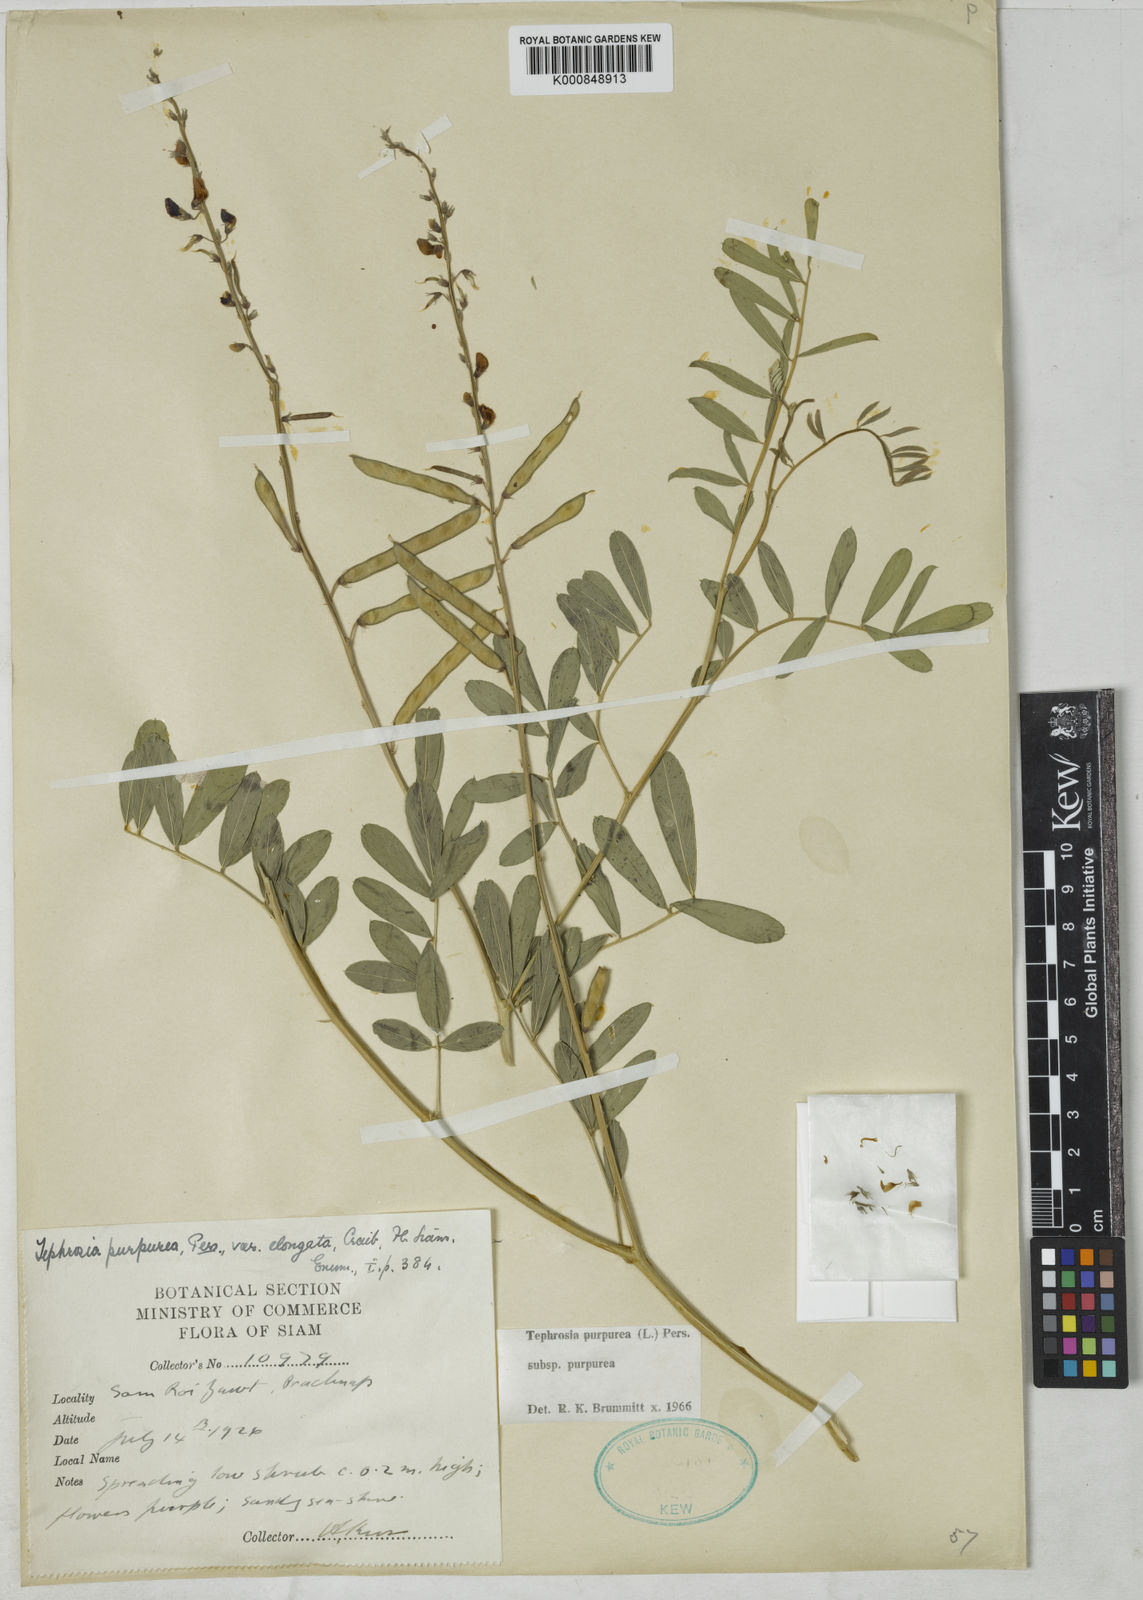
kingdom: Plantae
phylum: Tracheophyta
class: Magnoliopsida
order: Fabales
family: Fabaceae
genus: Tephrosia
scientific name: Tephrosia purpurea
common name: Fishpoison
